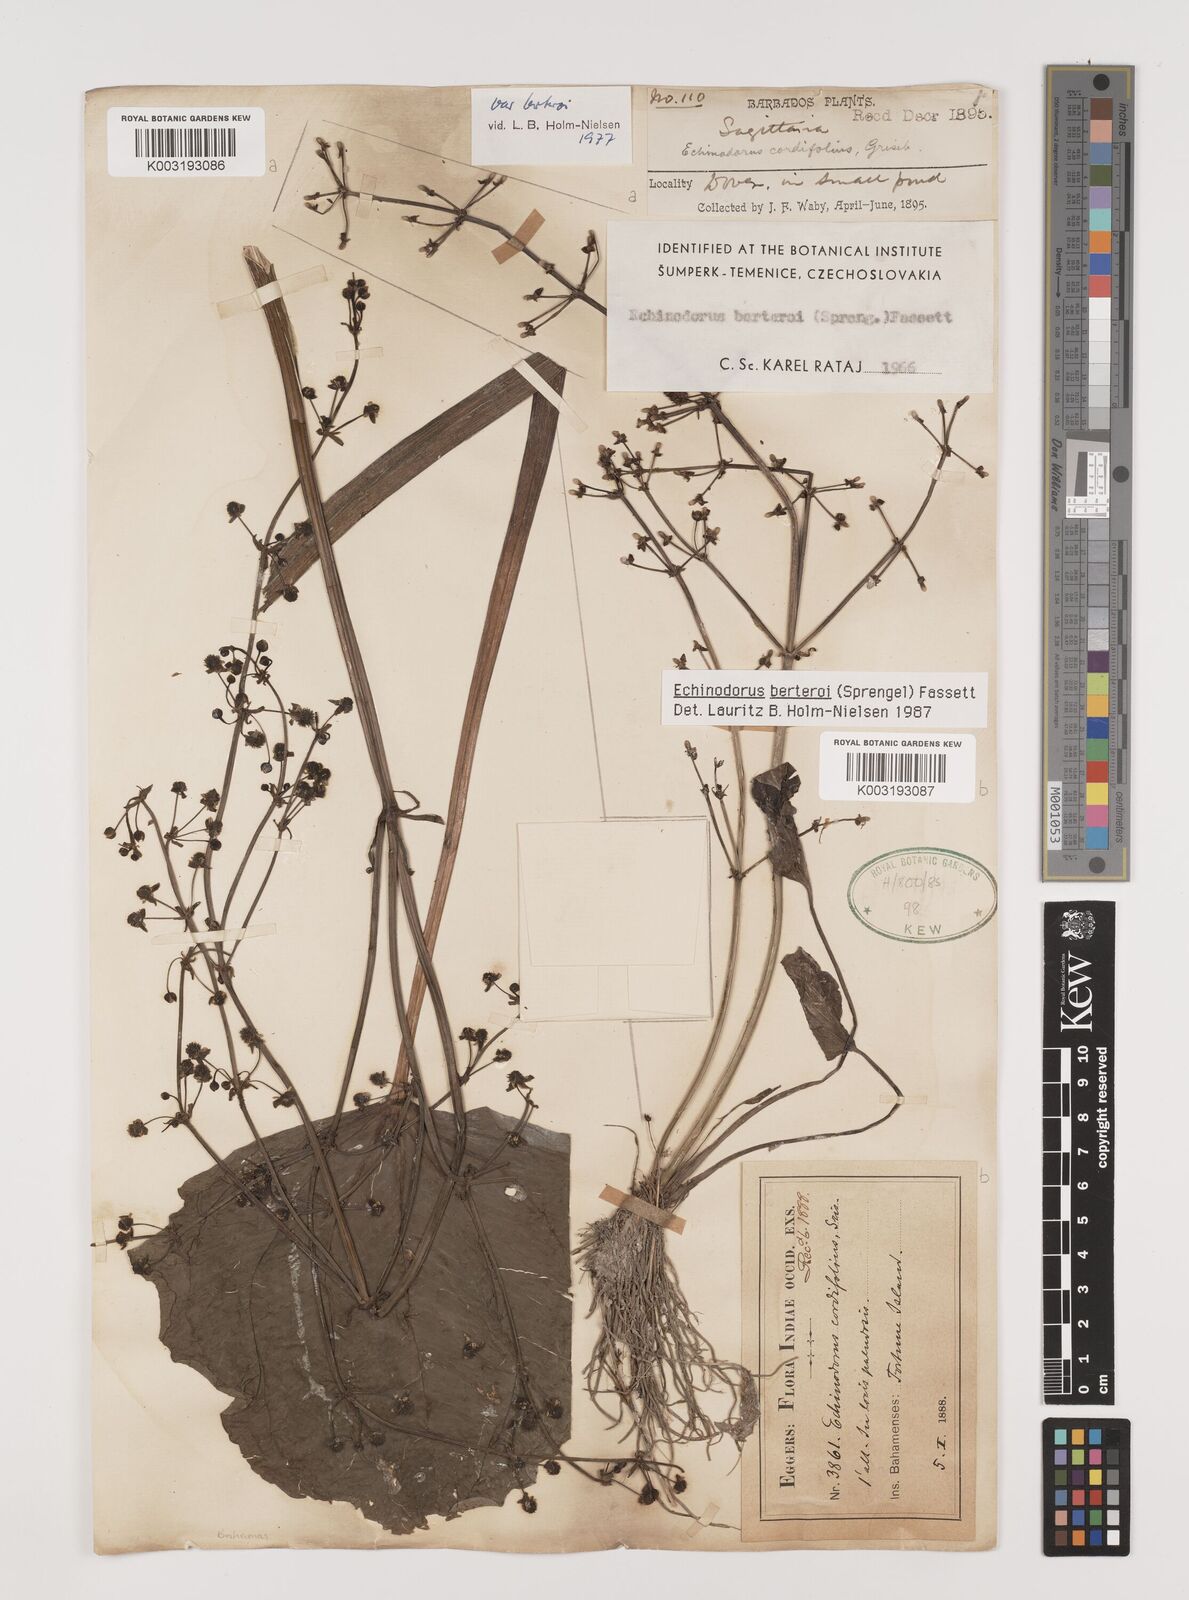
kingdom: Plantae
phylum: Tracheophyta
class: Liliopsida
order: Alismatales
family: Alismataceae
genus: Echinodorus
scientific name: Echinodorus berteroi
